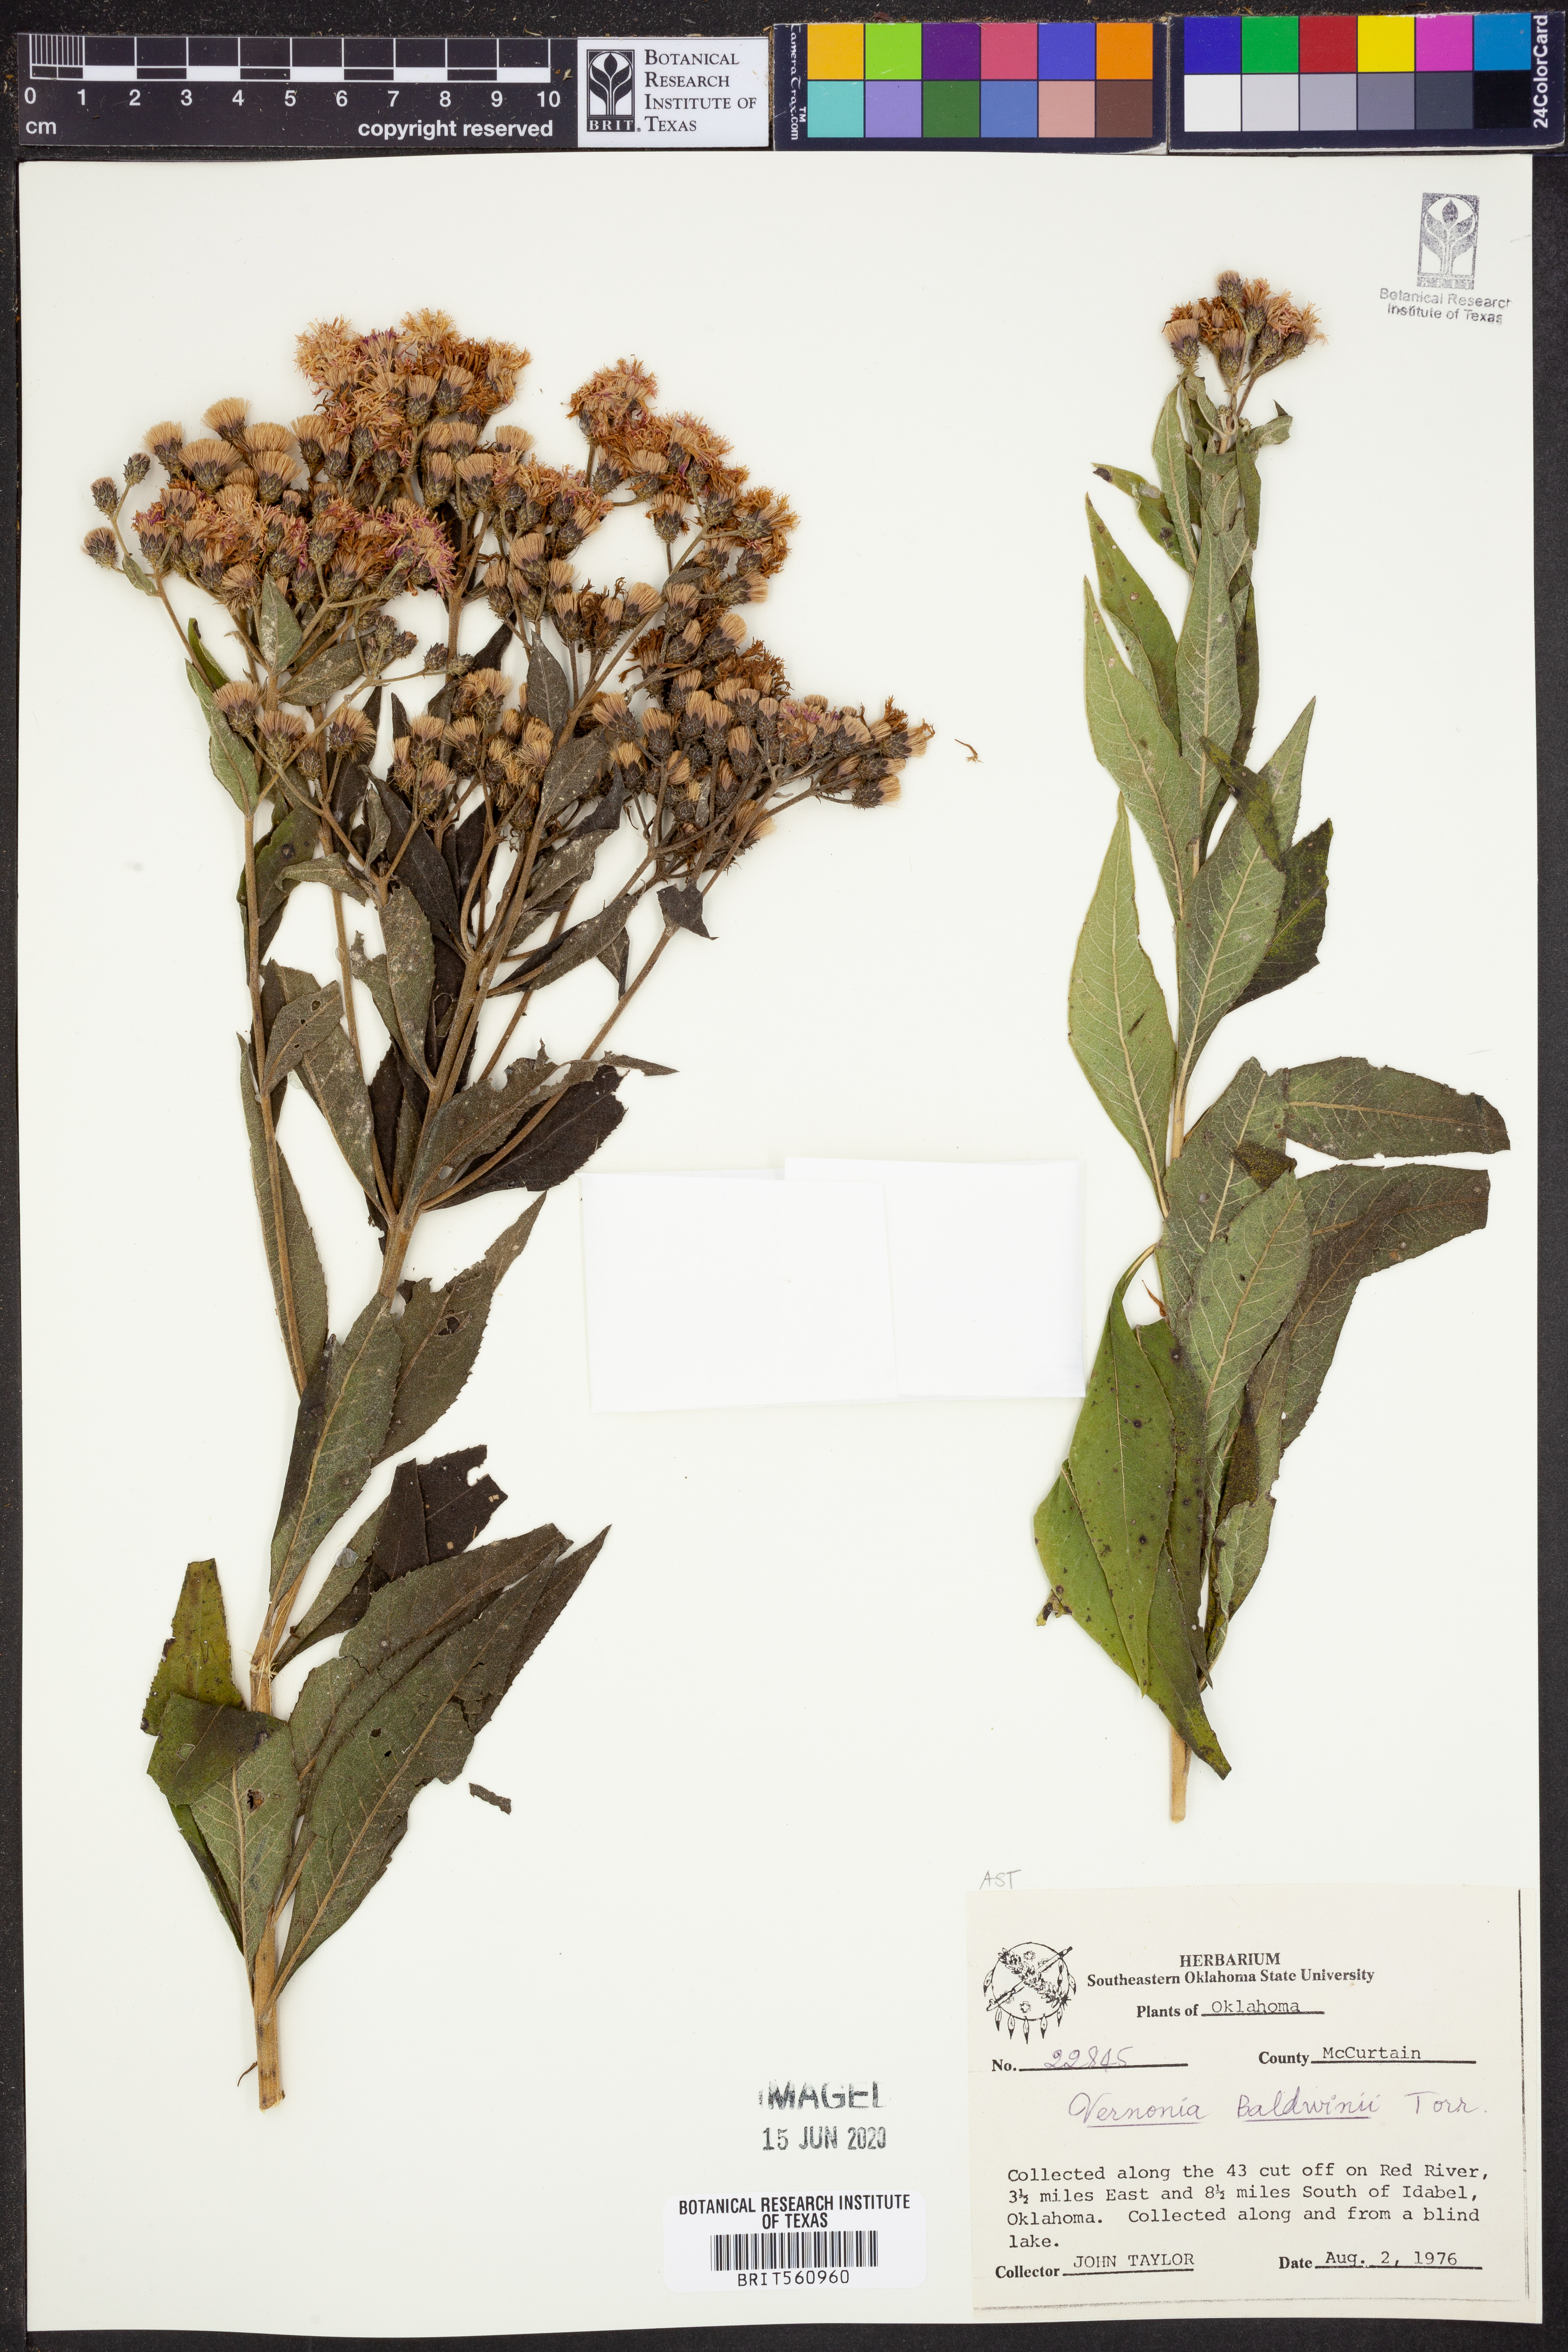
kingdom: Plantae
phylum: Tracheophyta
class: Magnoliopsida
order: Asterales
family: Asteraceae
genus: Vernonia
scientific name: Vernonia baldwinii
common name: Western ironweed
